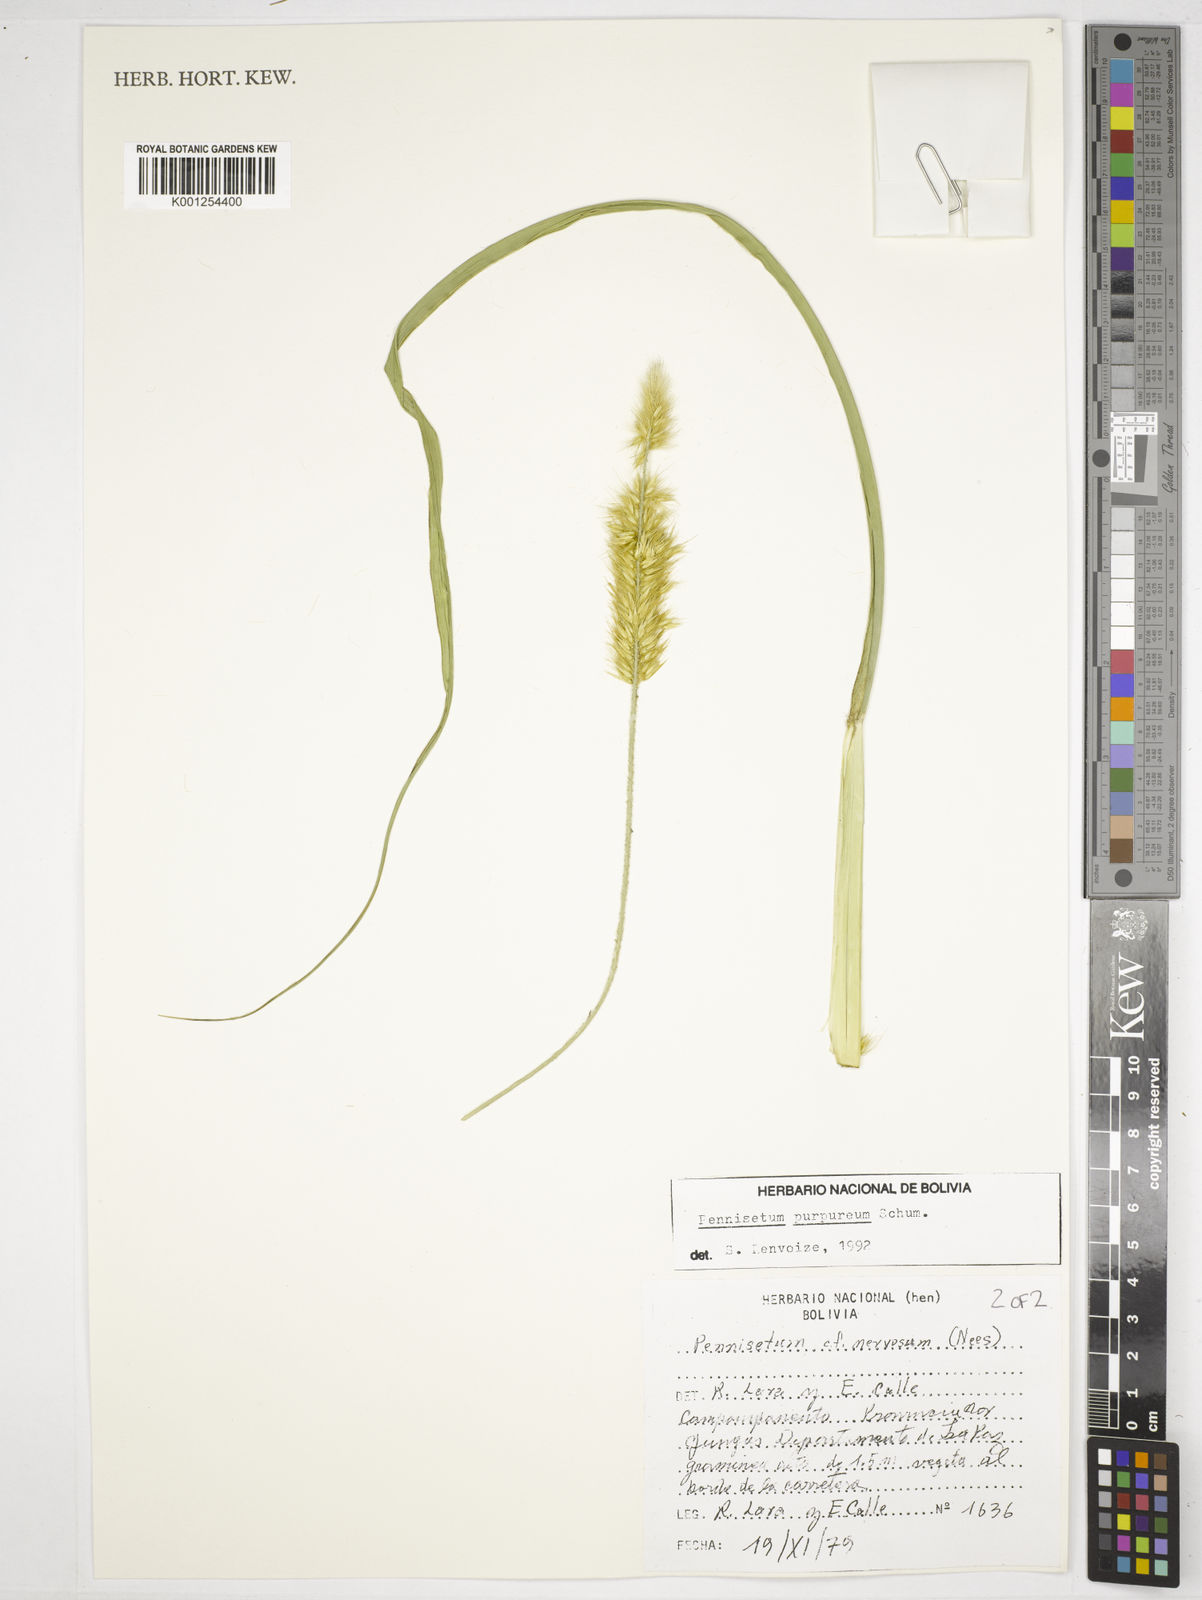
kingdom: Plantae
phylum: Tracheophyta
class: Liliopsida
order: Poales
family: Poaceae
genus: Cenchrus
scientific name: Cenchrus purpureus
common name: Elephant grass
